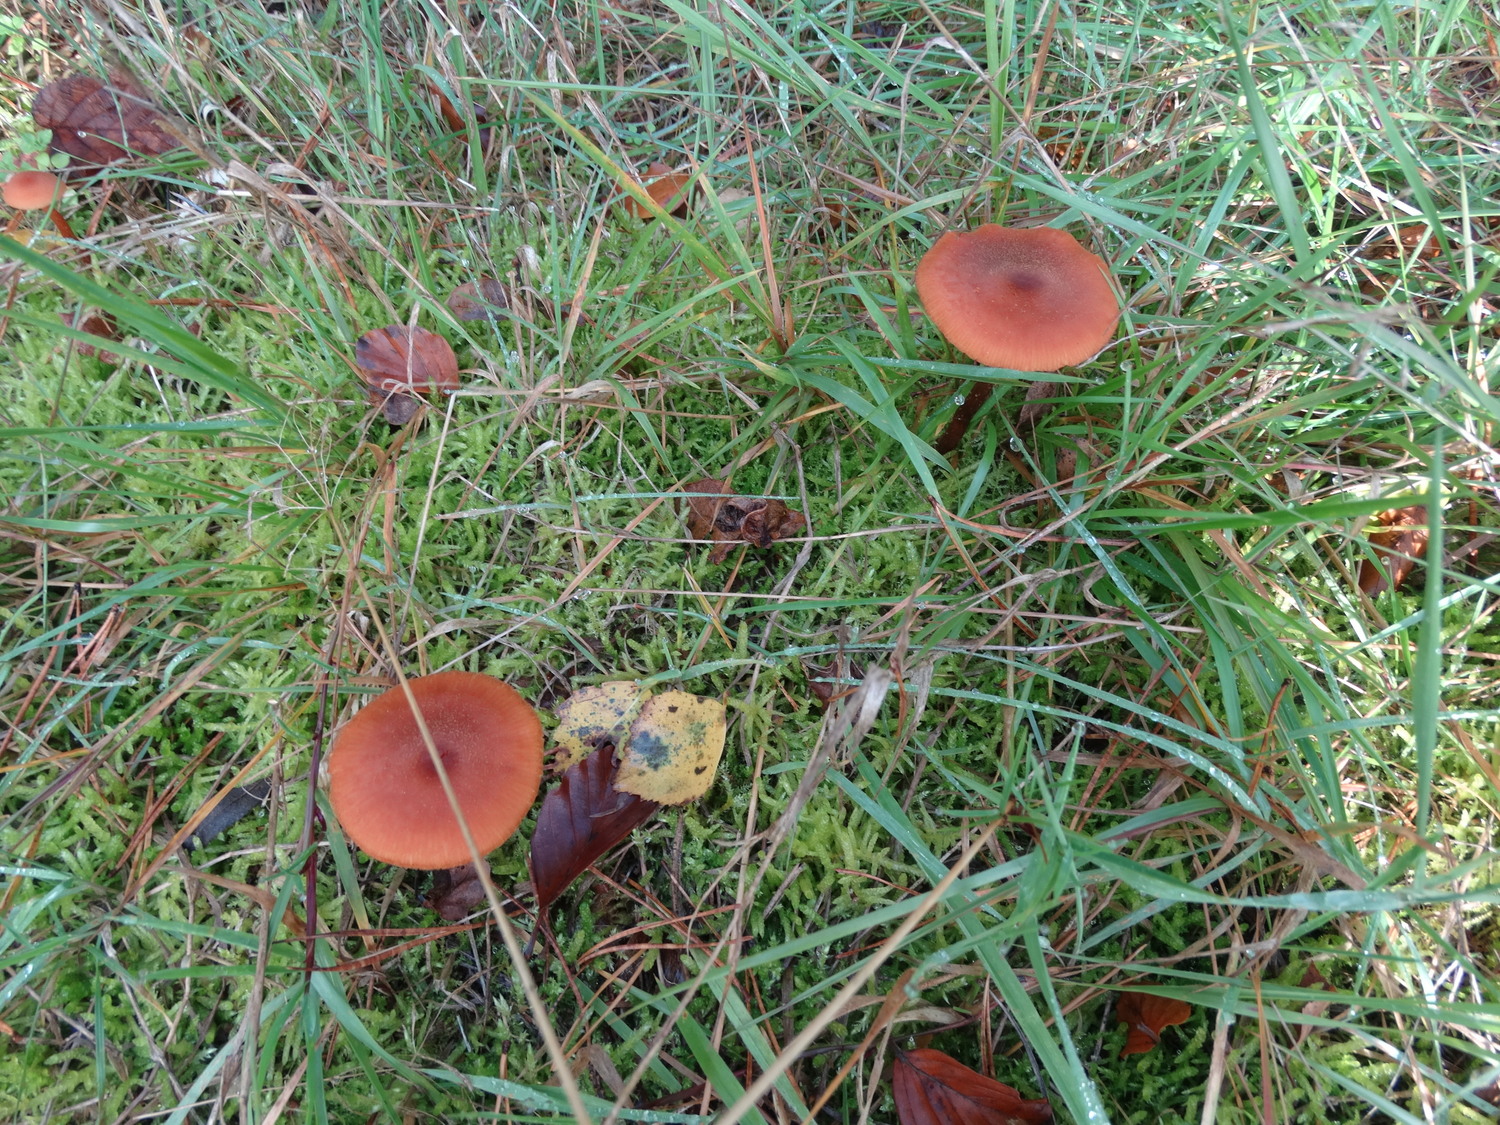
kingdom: Fungi
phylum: Basidiomycota
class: Agaricomycetes
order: Agaricales
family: Hydnangiaceae
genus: Laccaria
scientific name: Laccaria proxima
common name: stor ametysthat
